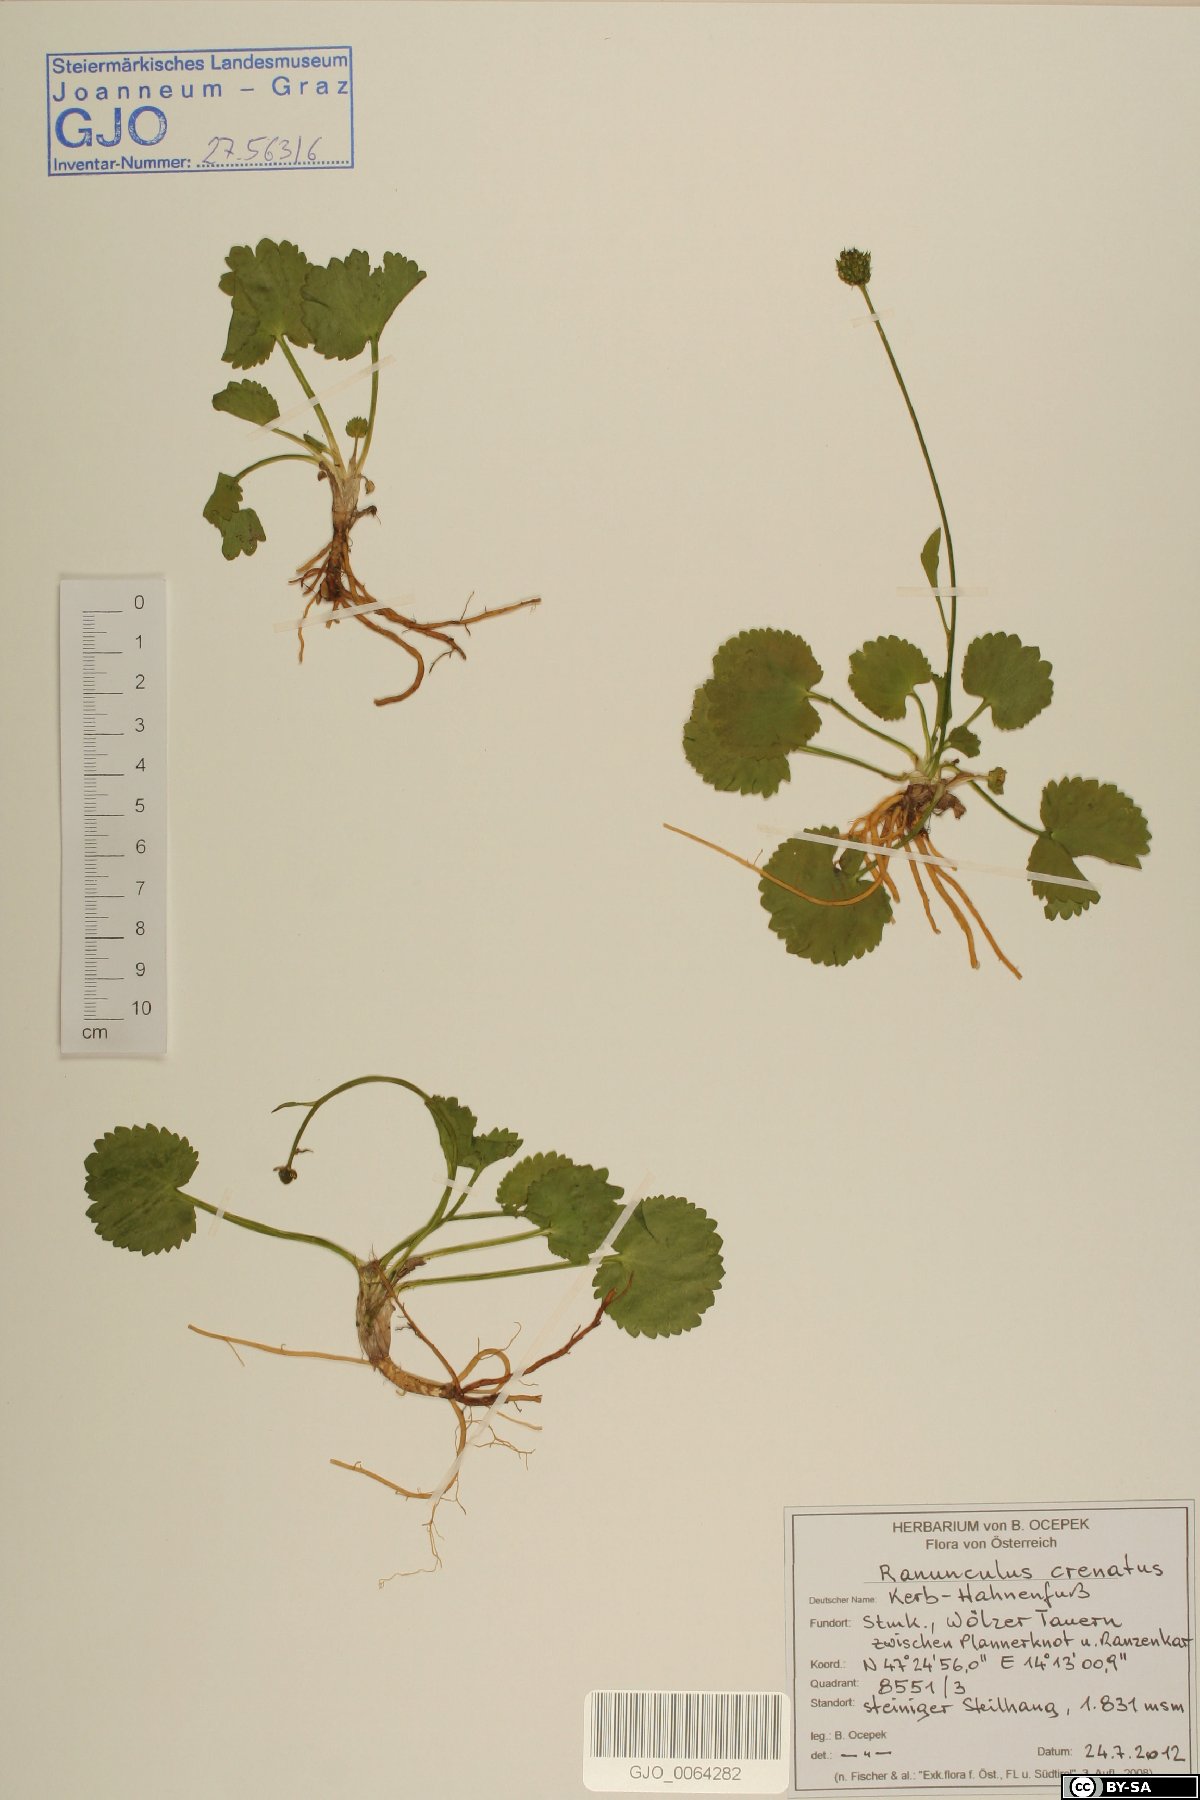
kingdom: Plantae
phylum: Tracheophyta
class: Magnoliopsida
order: Ranunculales
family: Ranunculaceae
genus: Ranunculus
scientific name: Ranunculus crenatus
